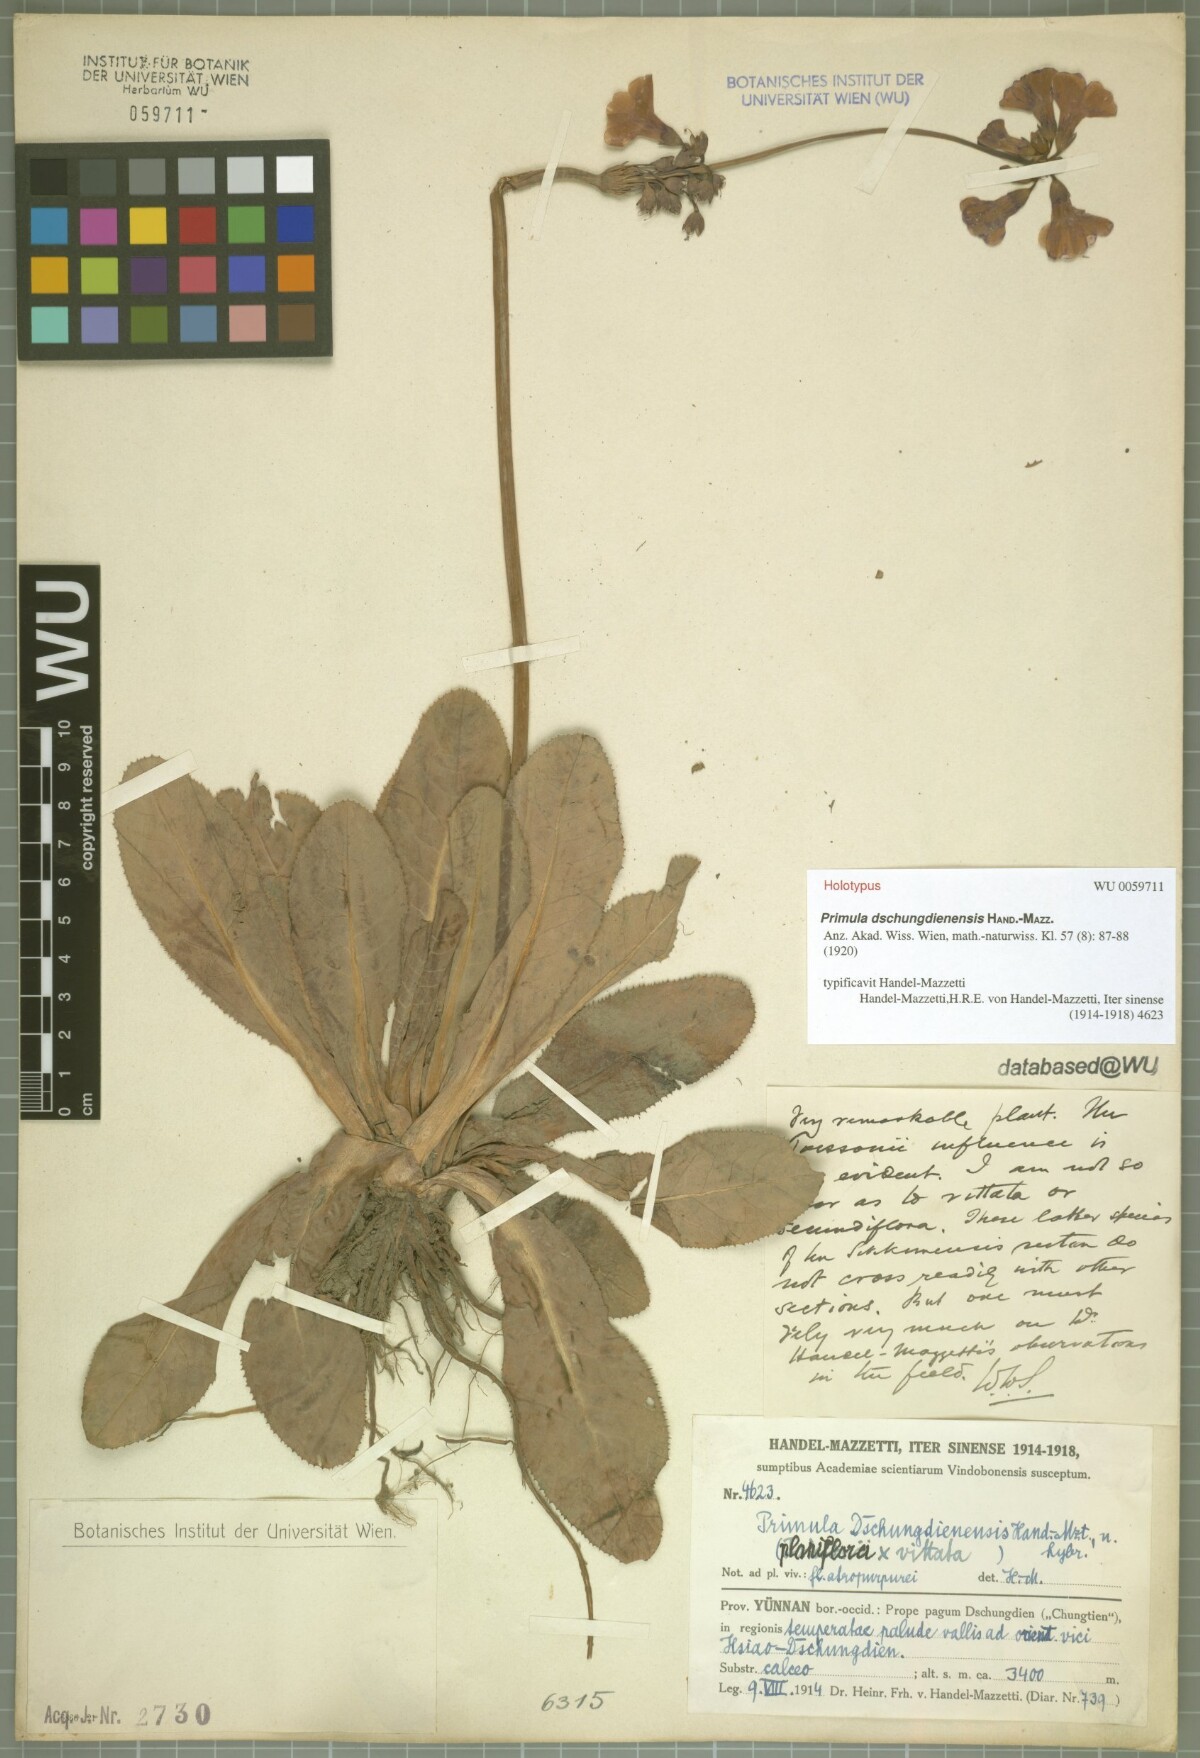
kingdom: Plantae
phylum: Tracheophyta
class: Magnoliopsida
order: Ericales
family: Primulaceae
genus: Primula
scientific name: Primula dschungdienensis
